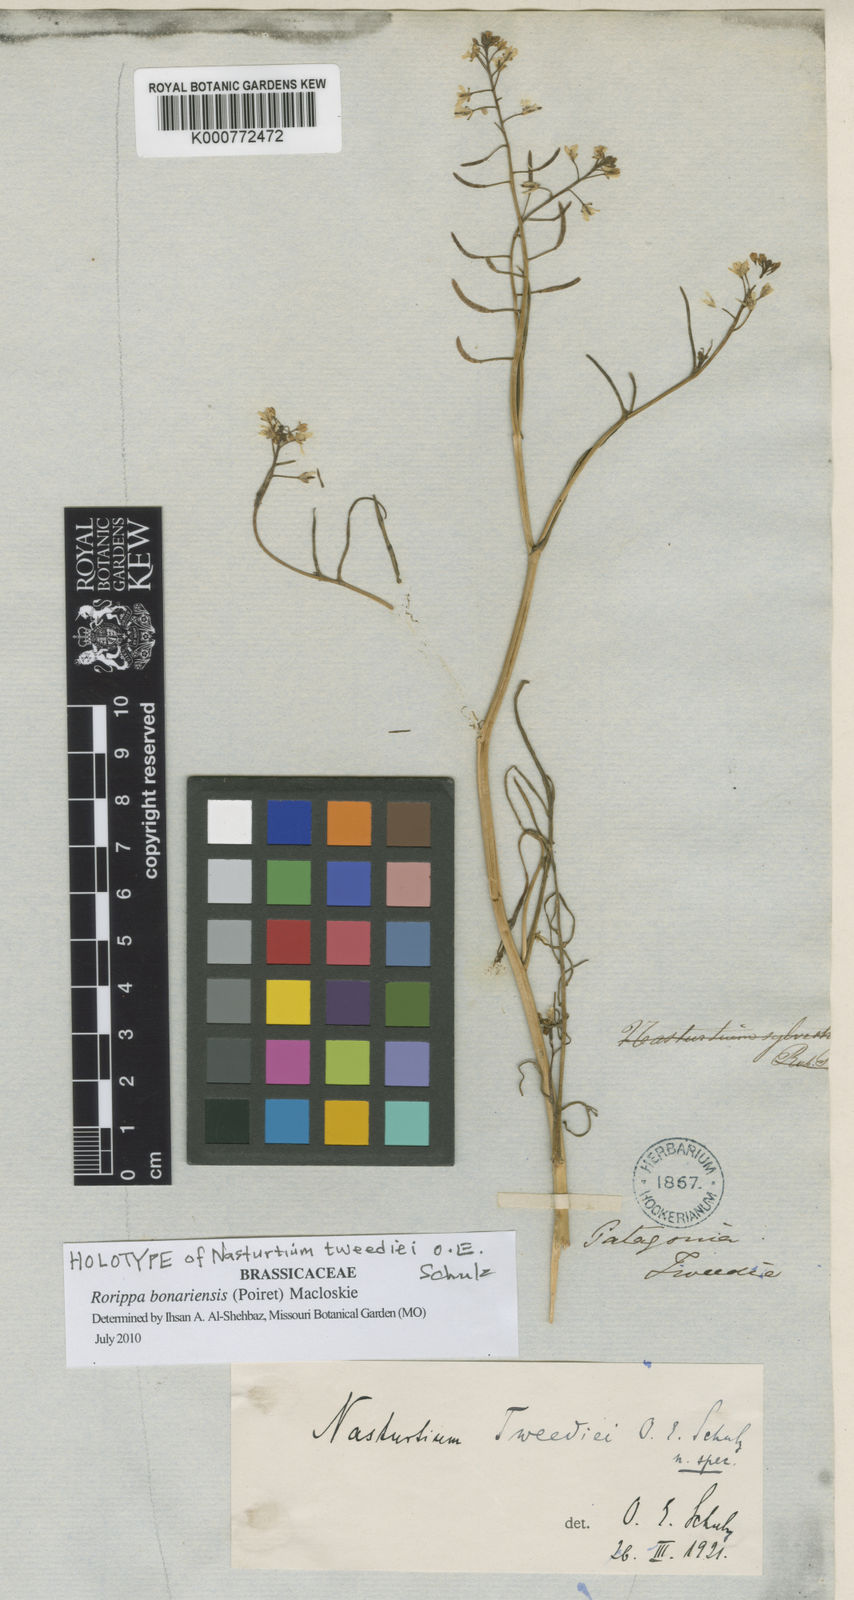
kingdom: Plantae
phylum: Tracheophyta
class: Magnoliopsida
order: Brassicales
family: Brassicaceae
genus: Nasturtium
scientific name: Nasturtium tweediei
